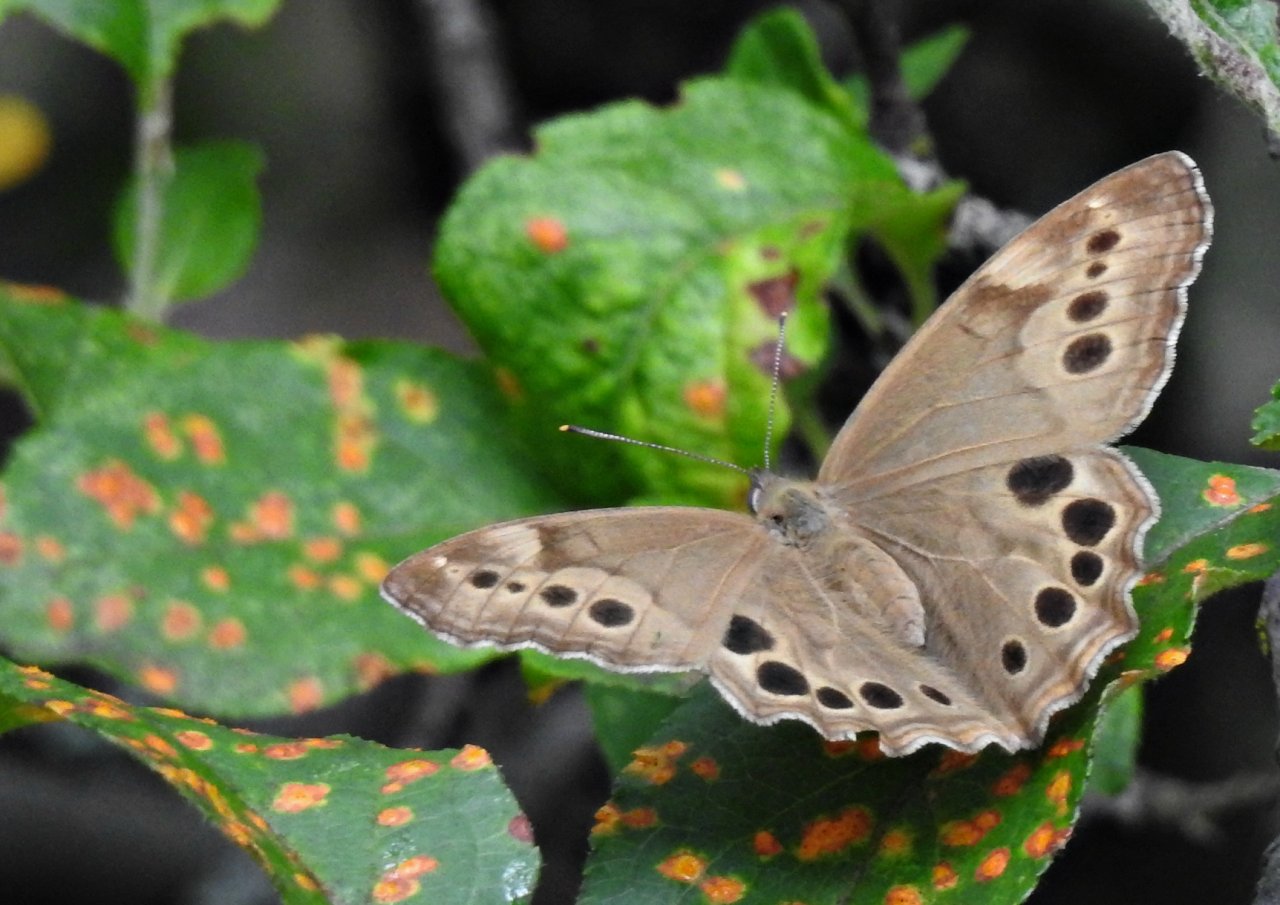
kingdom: Animalia
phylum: Arthropoda
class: Insecta
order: Lepidoptera
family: Nymphalidae
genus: Lethe
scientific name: Lethe anthedon
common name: Northern Pearly-Eye
